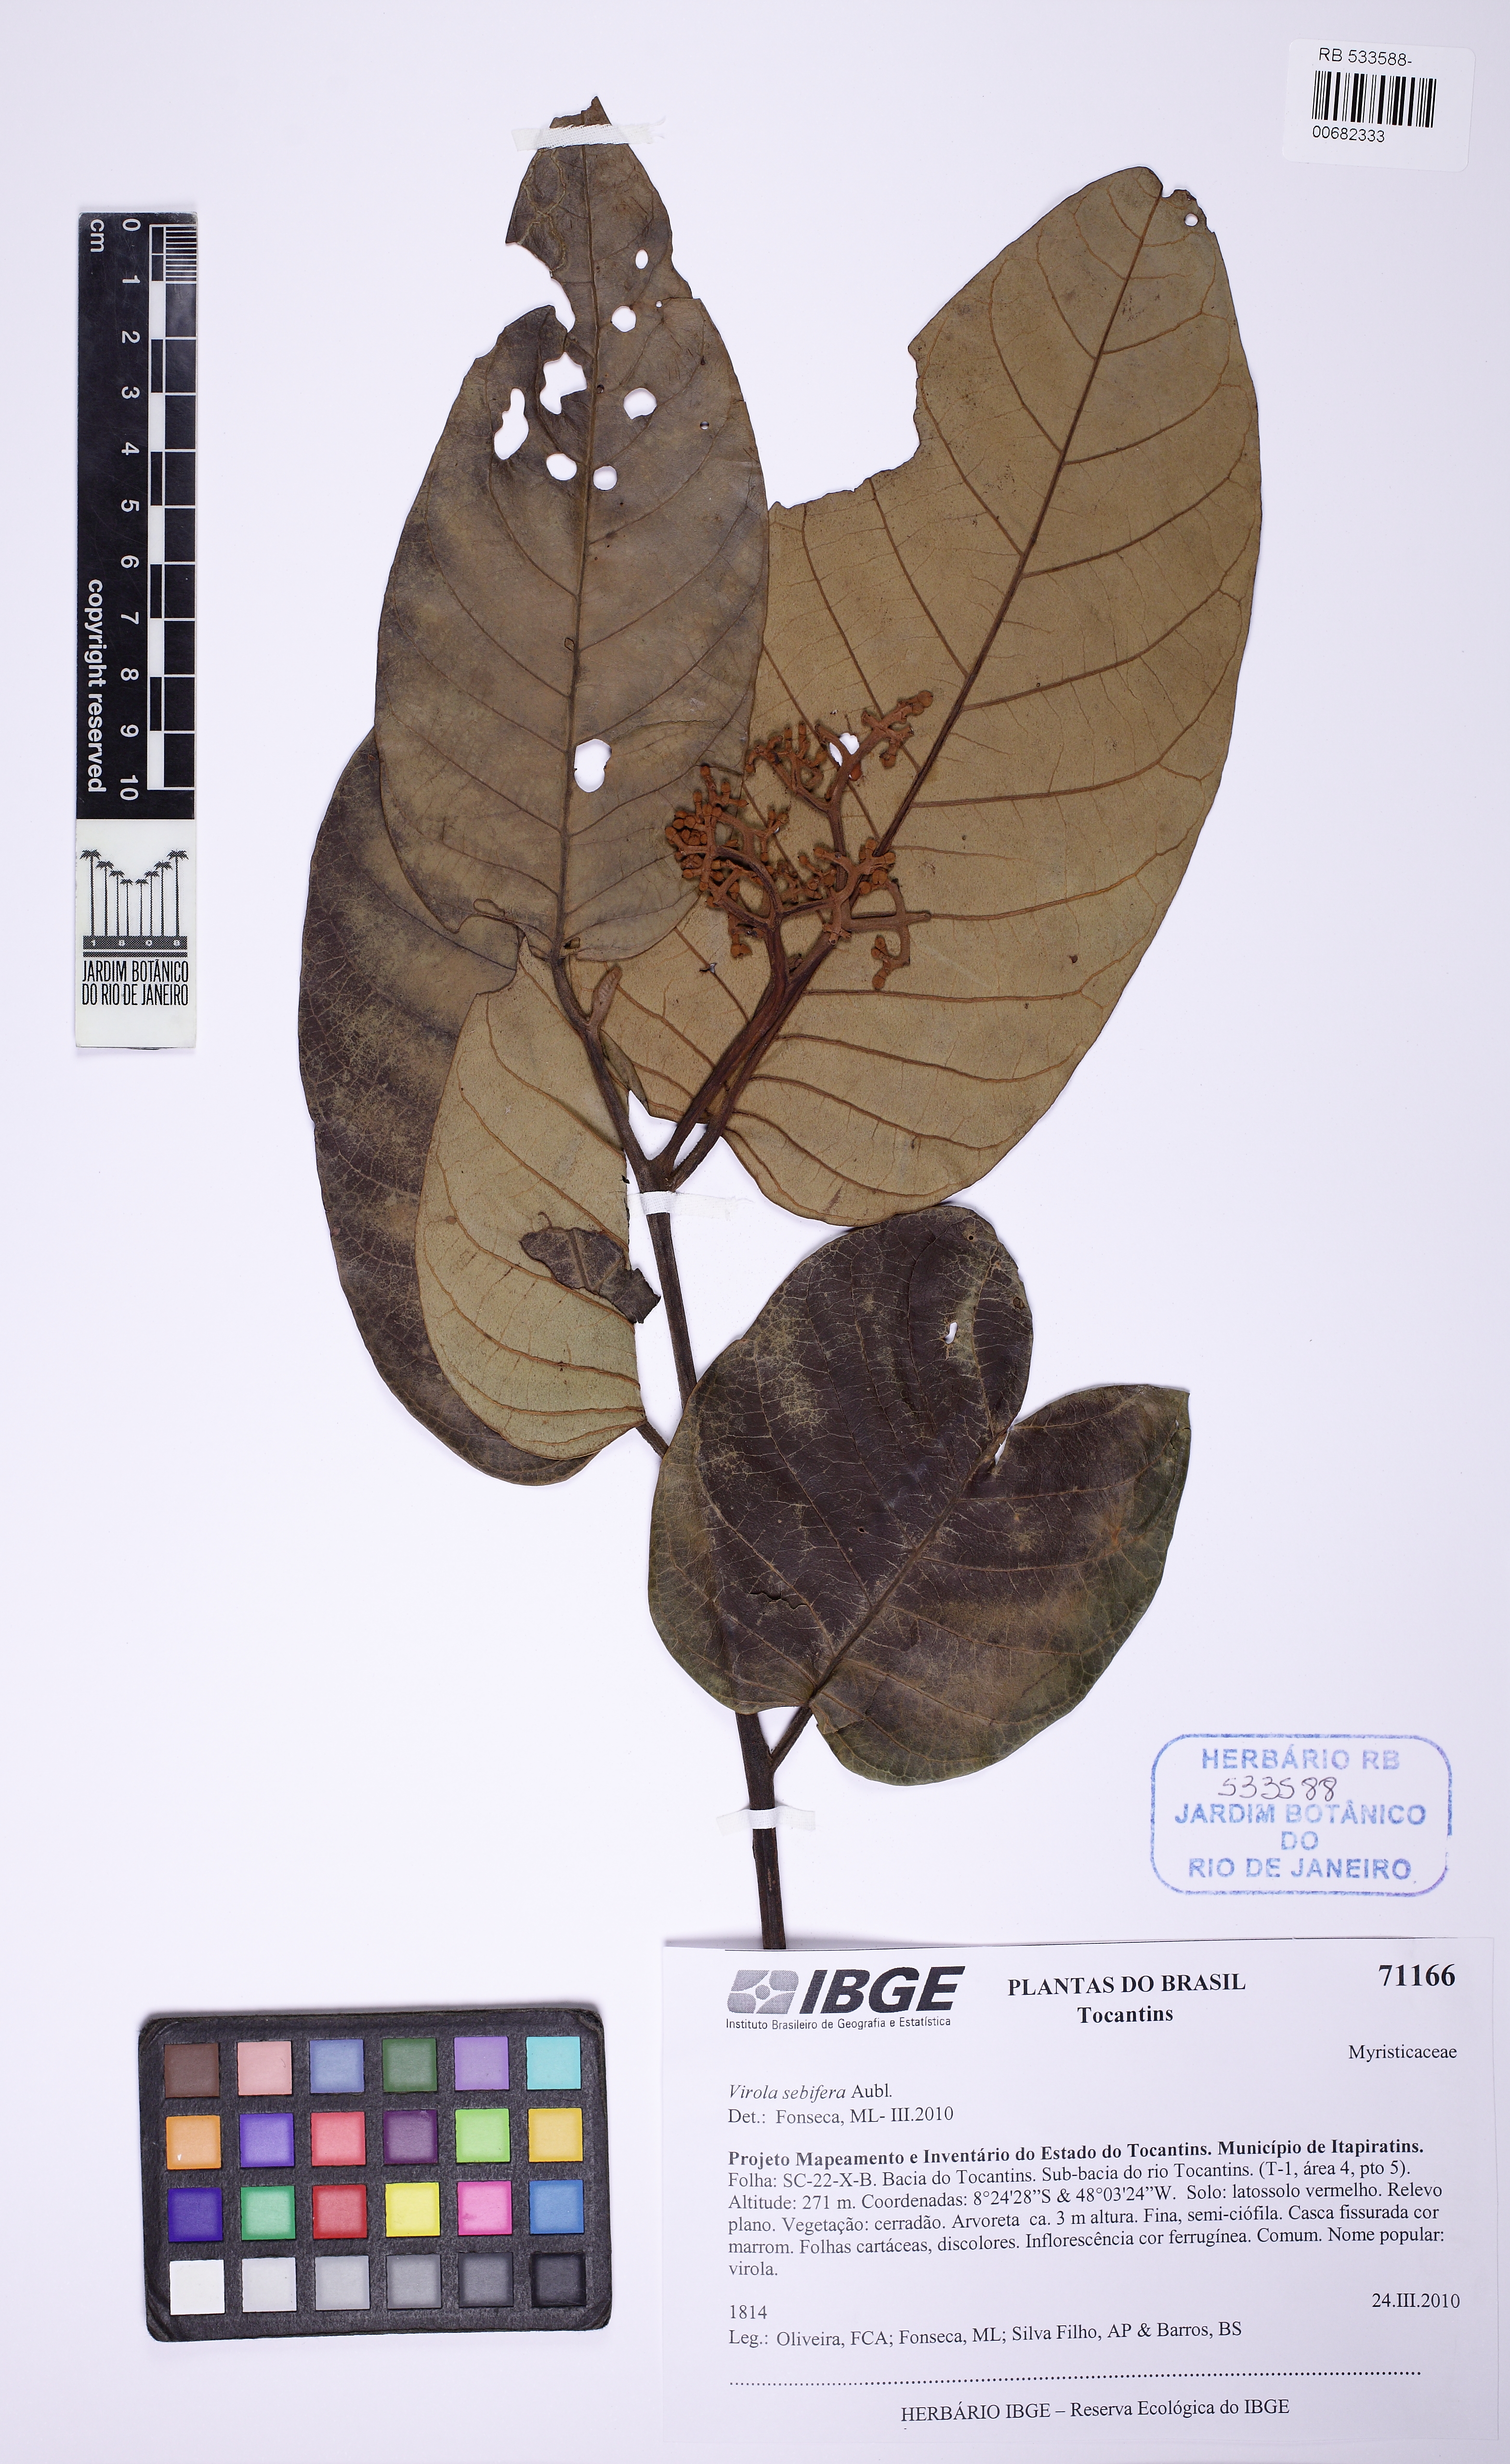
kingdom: Plantae
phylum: Tracheophyta
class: Magnoliopsida
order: Magnoliales
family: Myristicaceae
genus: Virola
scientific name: Virola sebifera
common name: Red ucuuba
